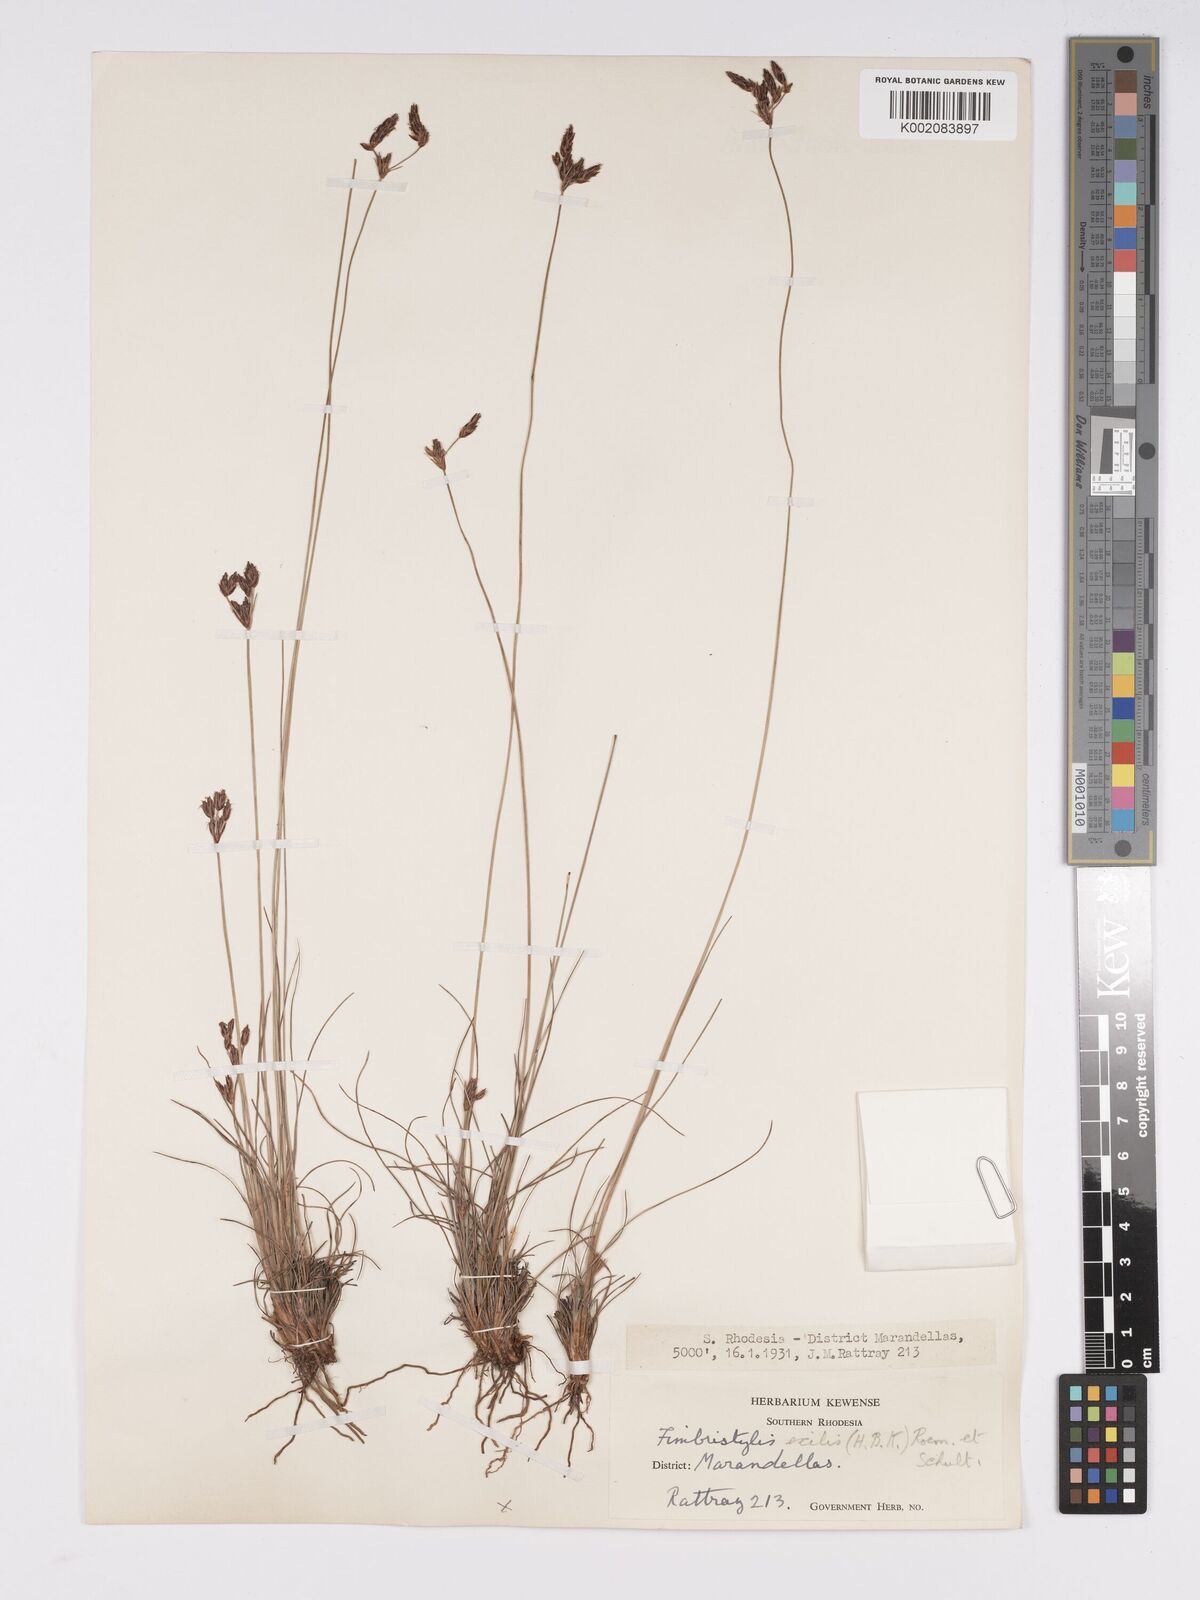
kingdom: Plantae
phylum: Tracheophyta
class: Liliopsida
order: Poales
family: Cyperaceae
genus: Bulbostylis
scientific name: Bulbostylis hispidula
